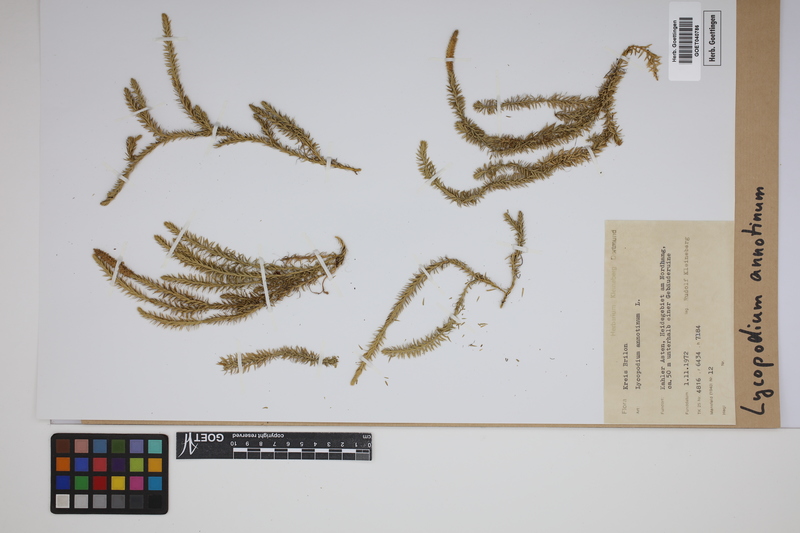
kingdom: Plantae
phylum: Tracheophyta
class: Lycopodiopsida
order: Lycopodiales
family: Lycopodiaceae
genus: Spinulum
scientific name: Spinulum annotinum
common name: Interrupted club-moss
